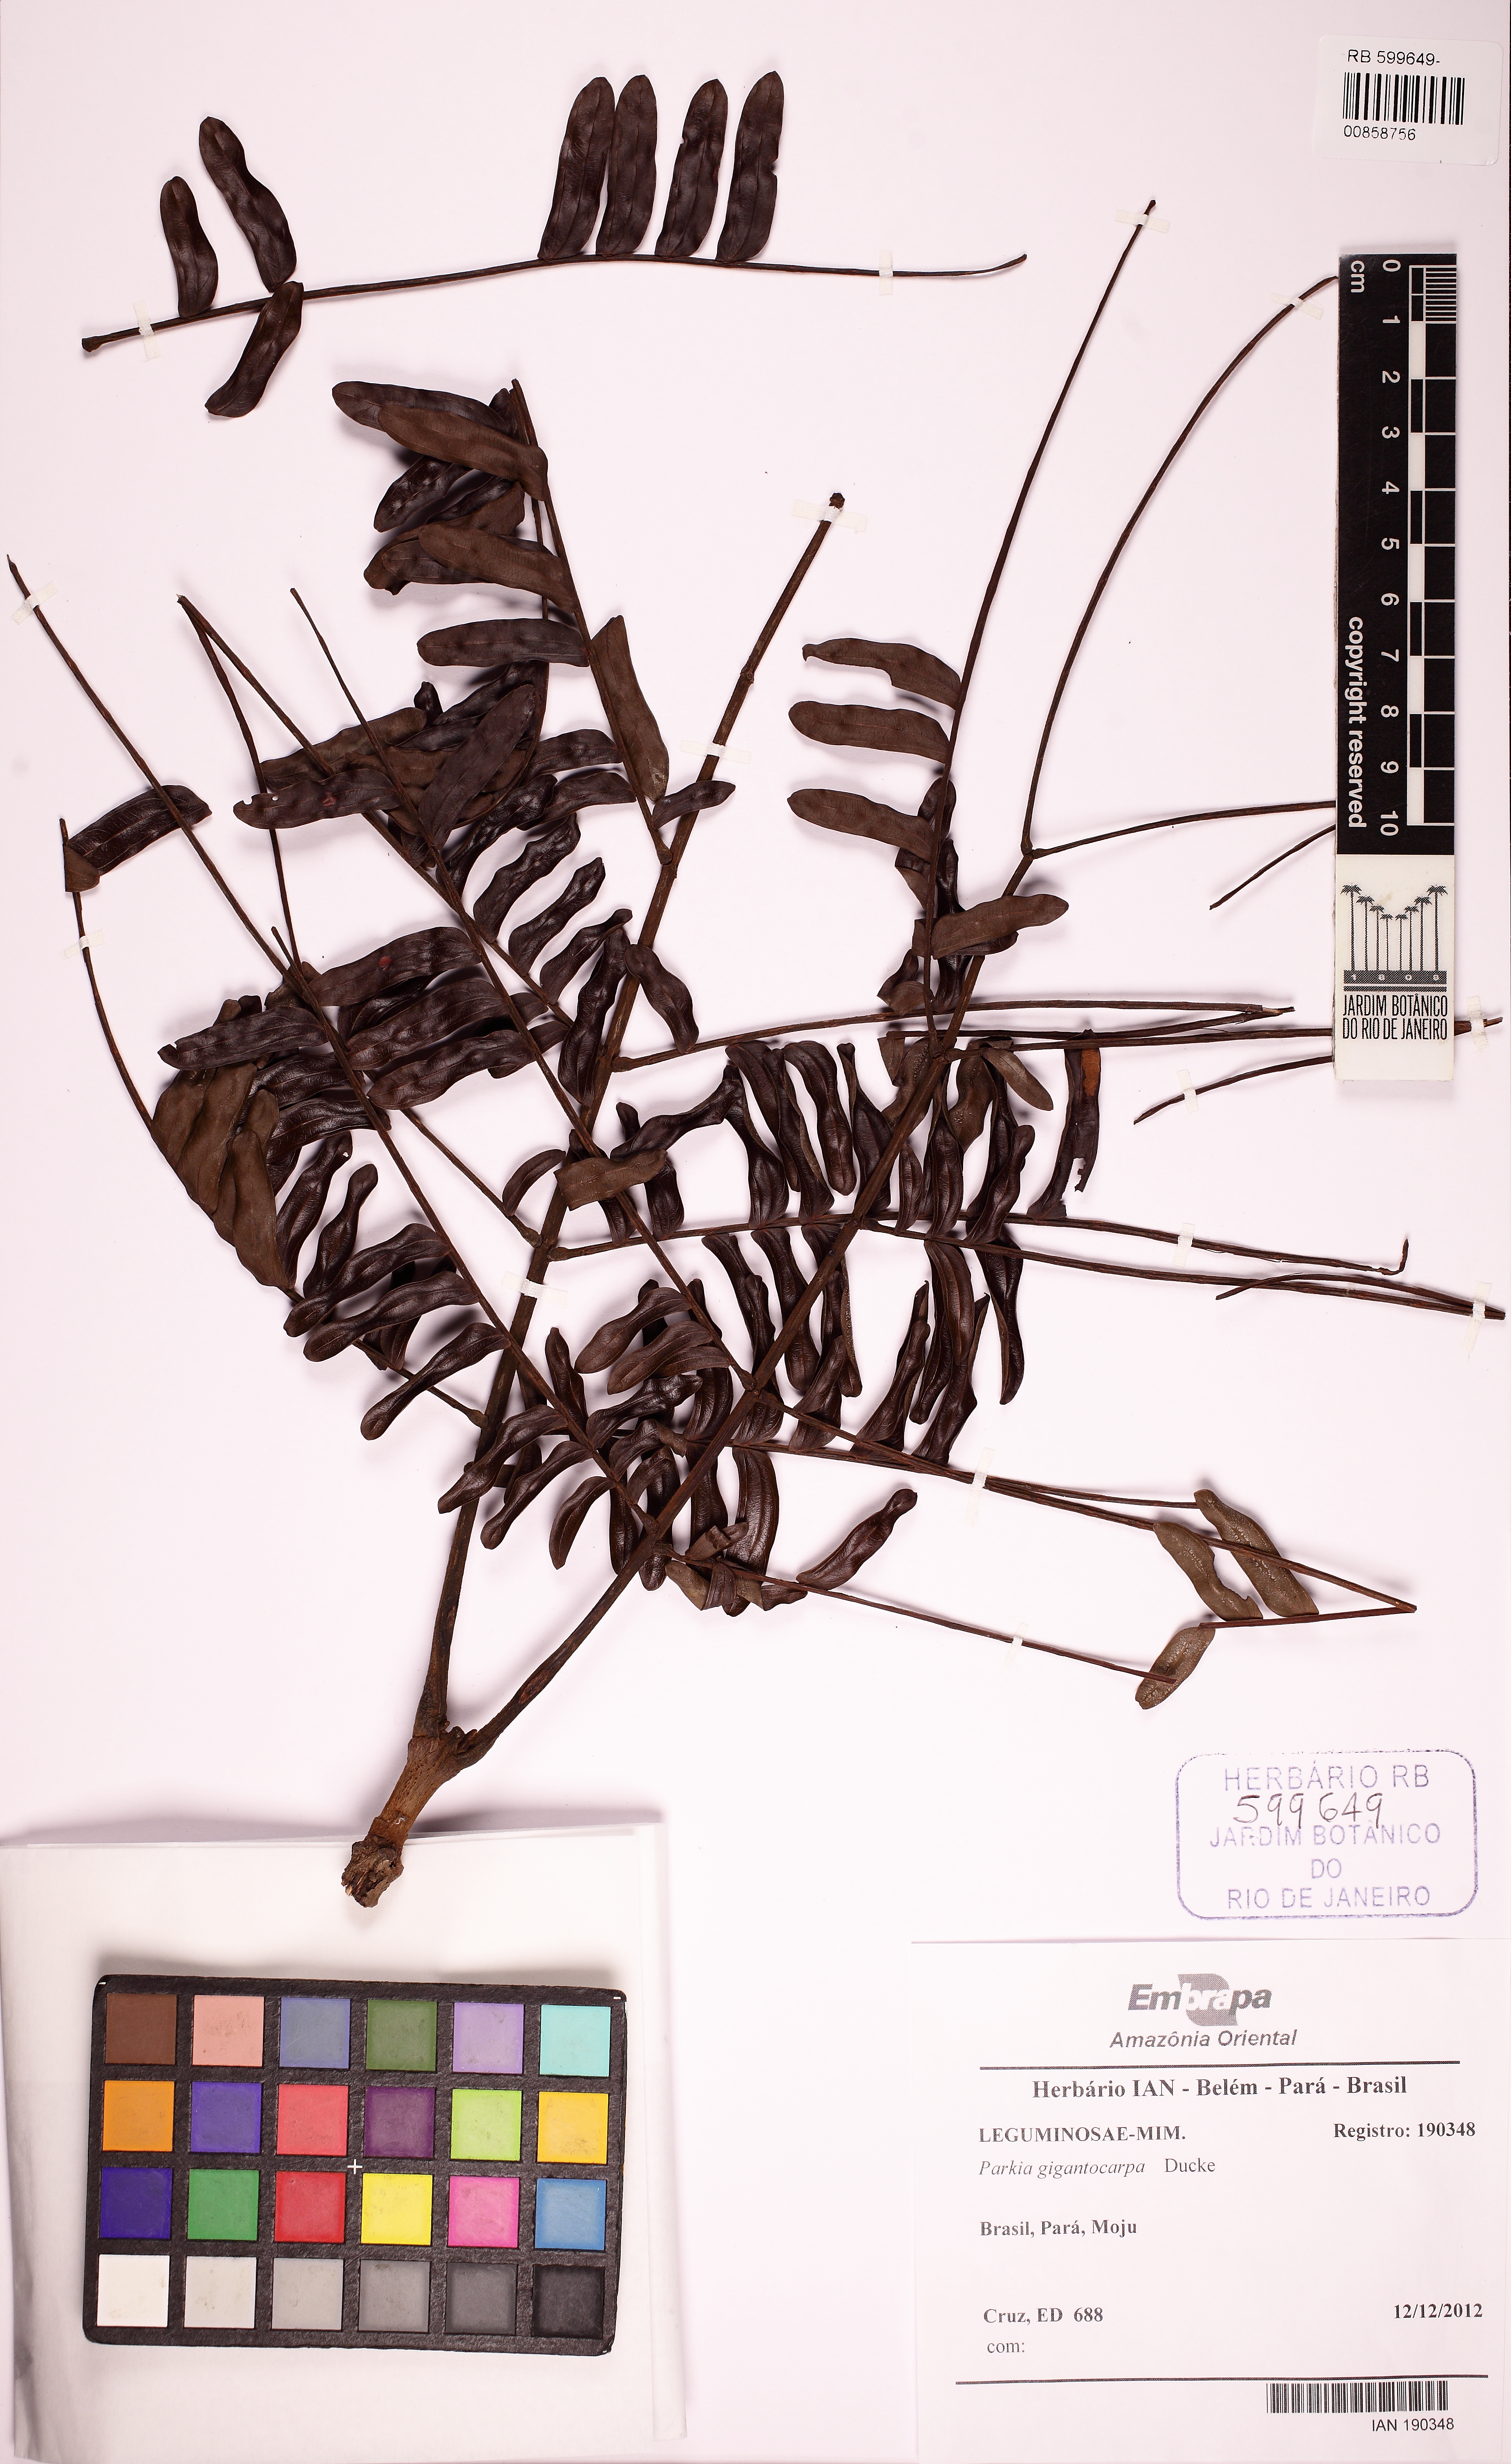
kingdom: Plantae
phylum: Tracheophyta
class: Magnoliopsida
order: Fabales
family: Fabaceae
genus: Parkia
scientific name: Parkia gigantocarpa
